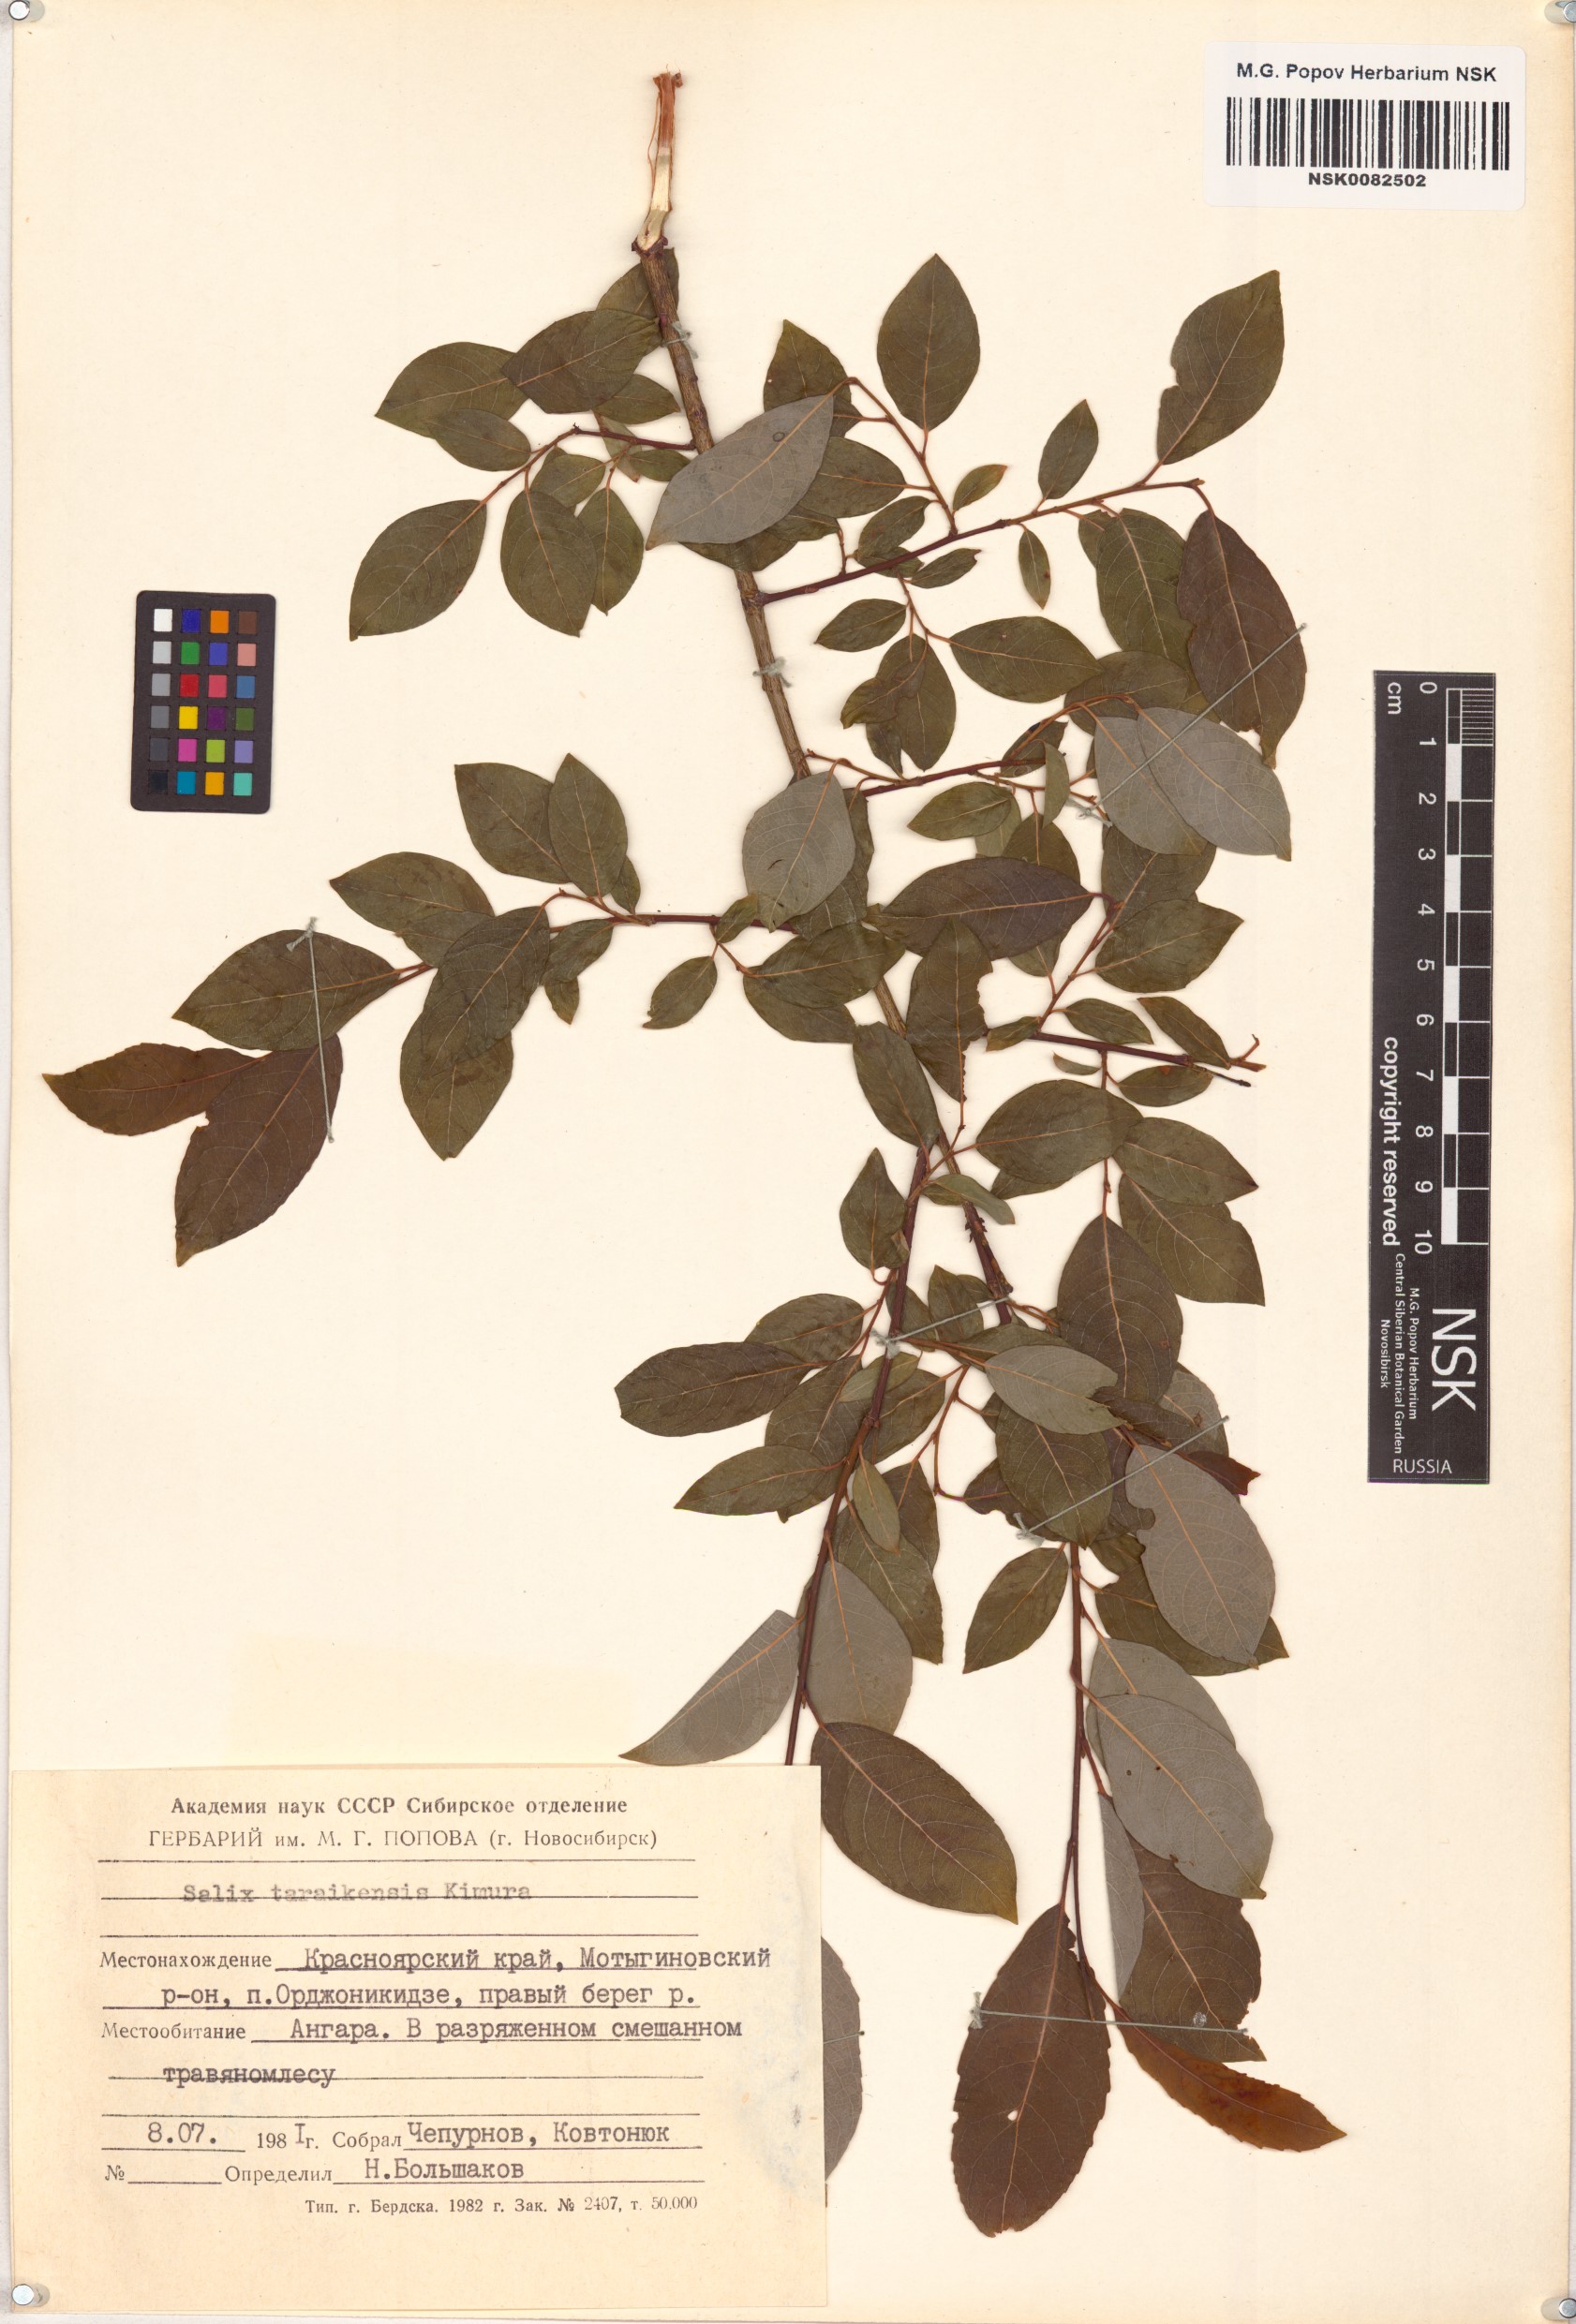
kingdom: Plantae
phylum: Tracheophyta
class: Magnoliopsida
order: Malpighiales
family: Salicaceae
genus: Salix
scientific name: Salix taraikensis
